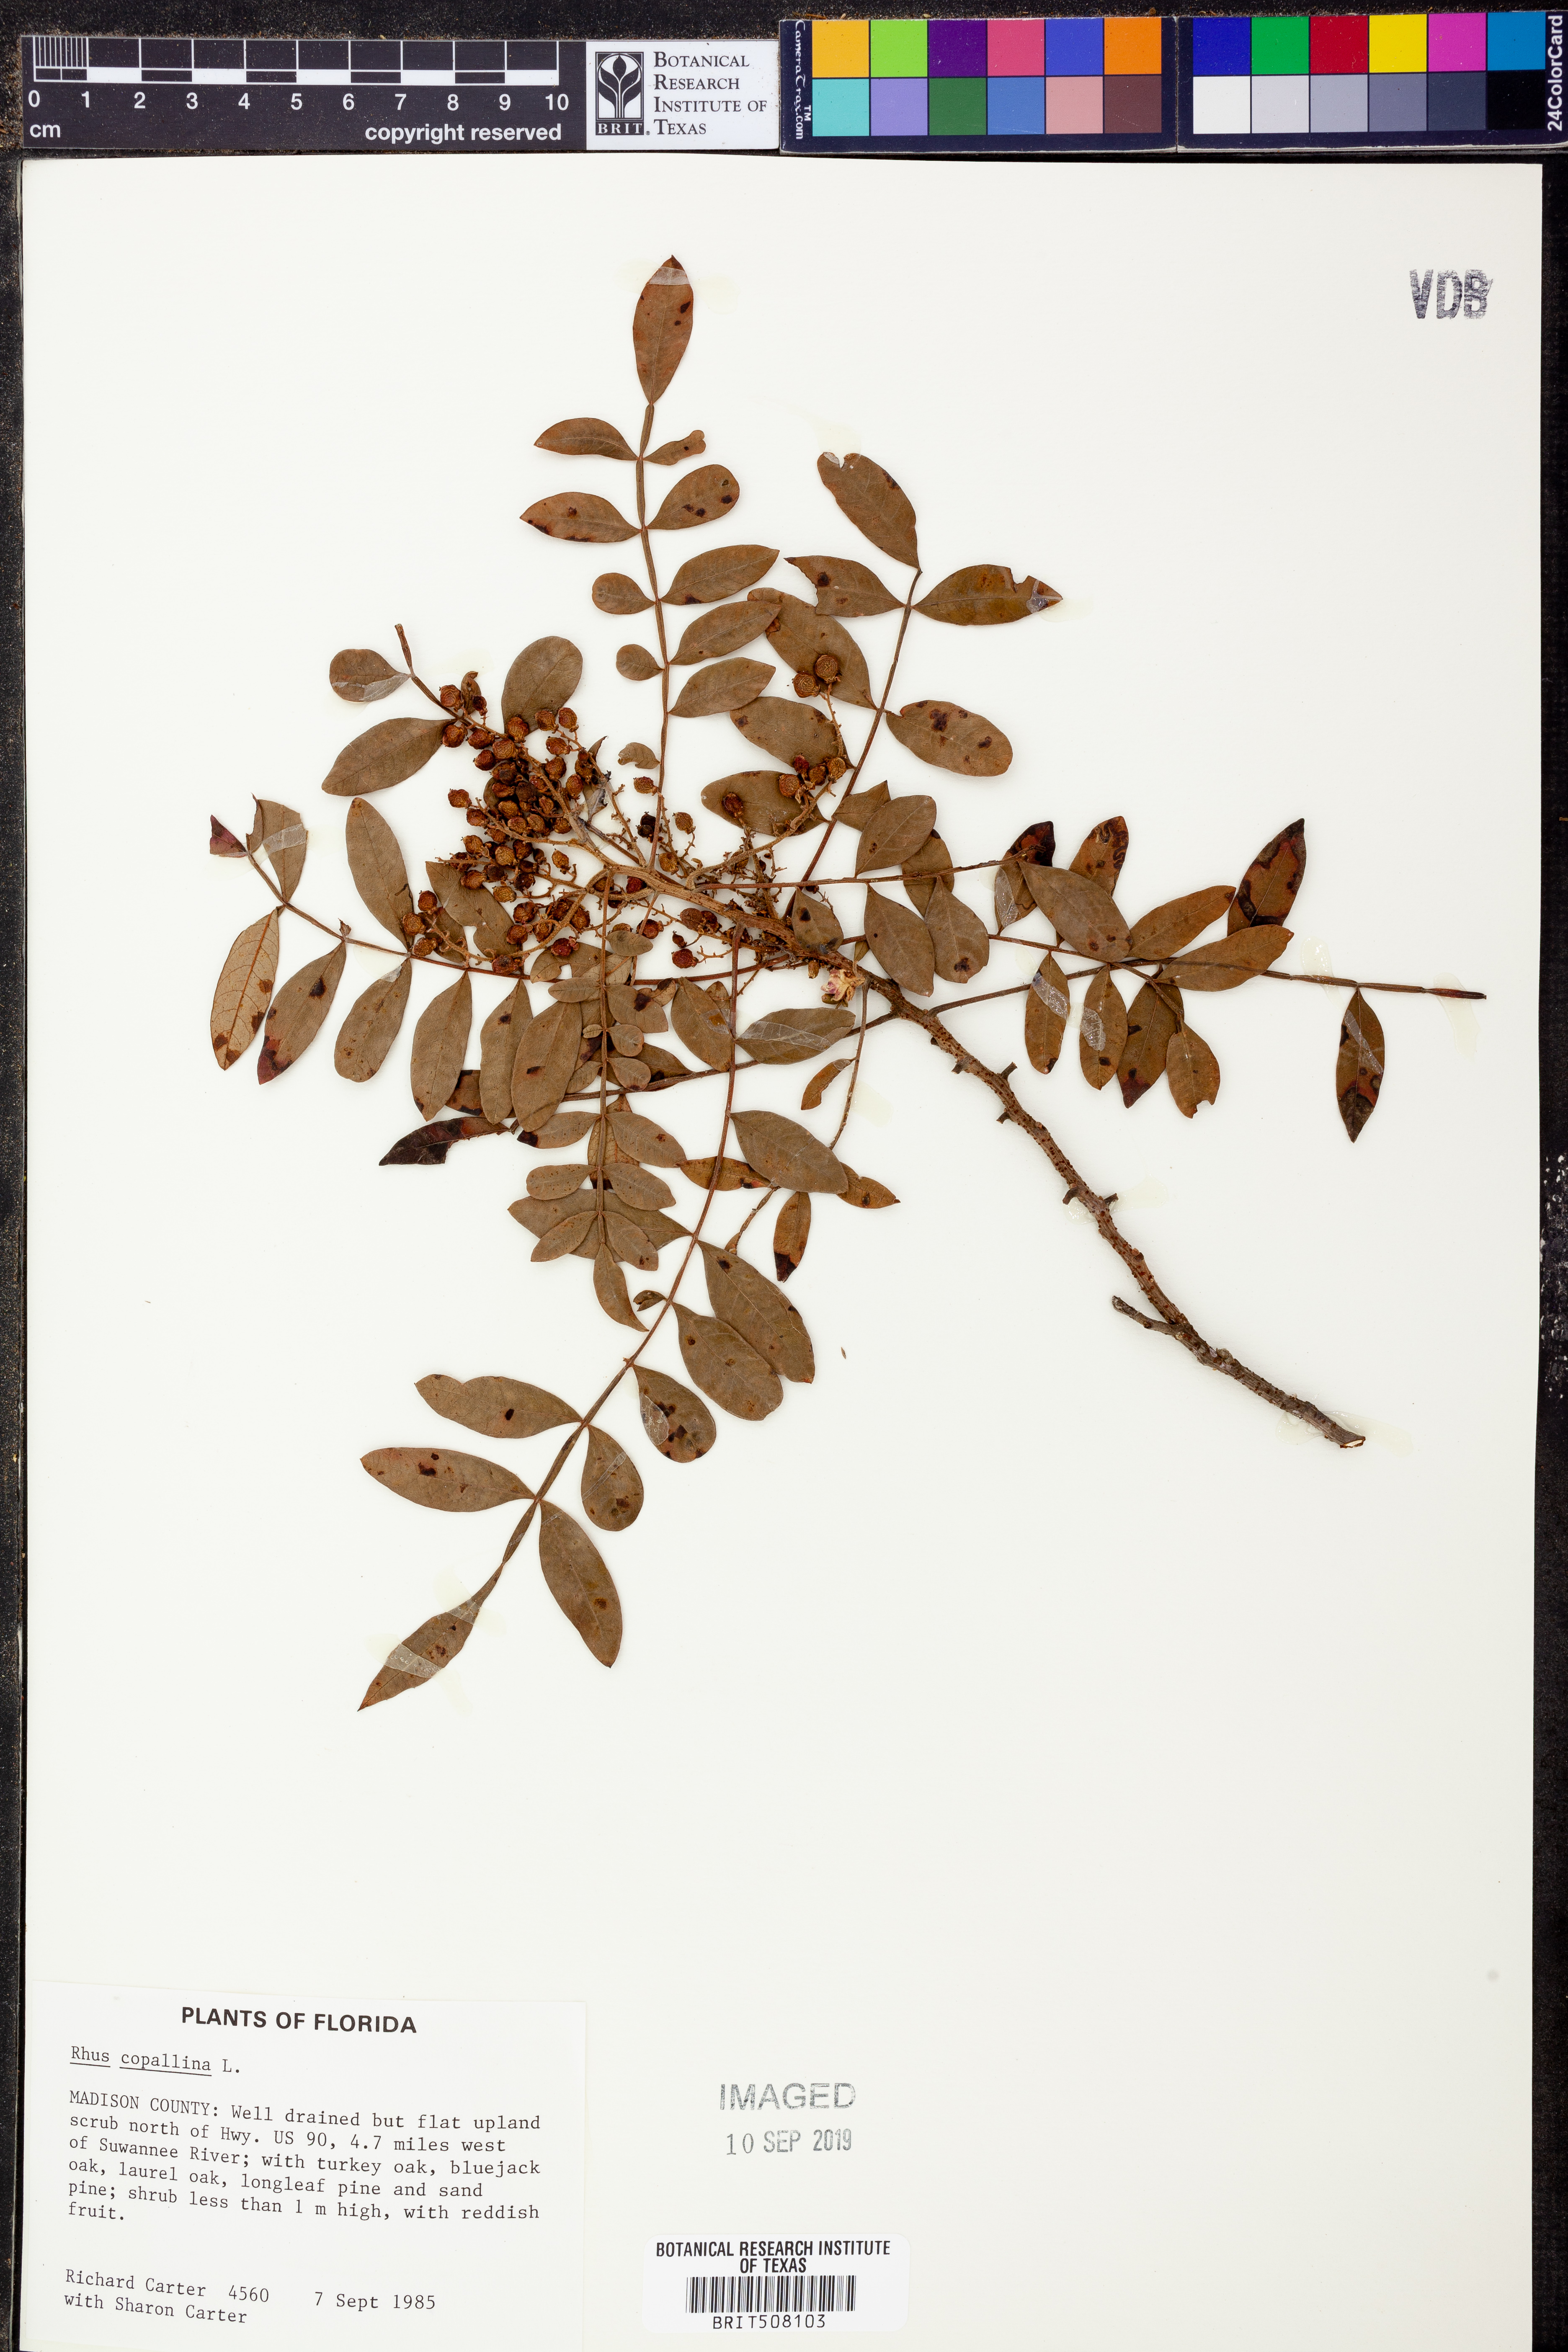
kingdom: Plantae
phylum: Tracheophyta
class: Magnoliopsida
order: Sapindales
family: Anacardiaceae
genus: Rhus
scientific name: Rhus copallina
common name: Shining sumac
